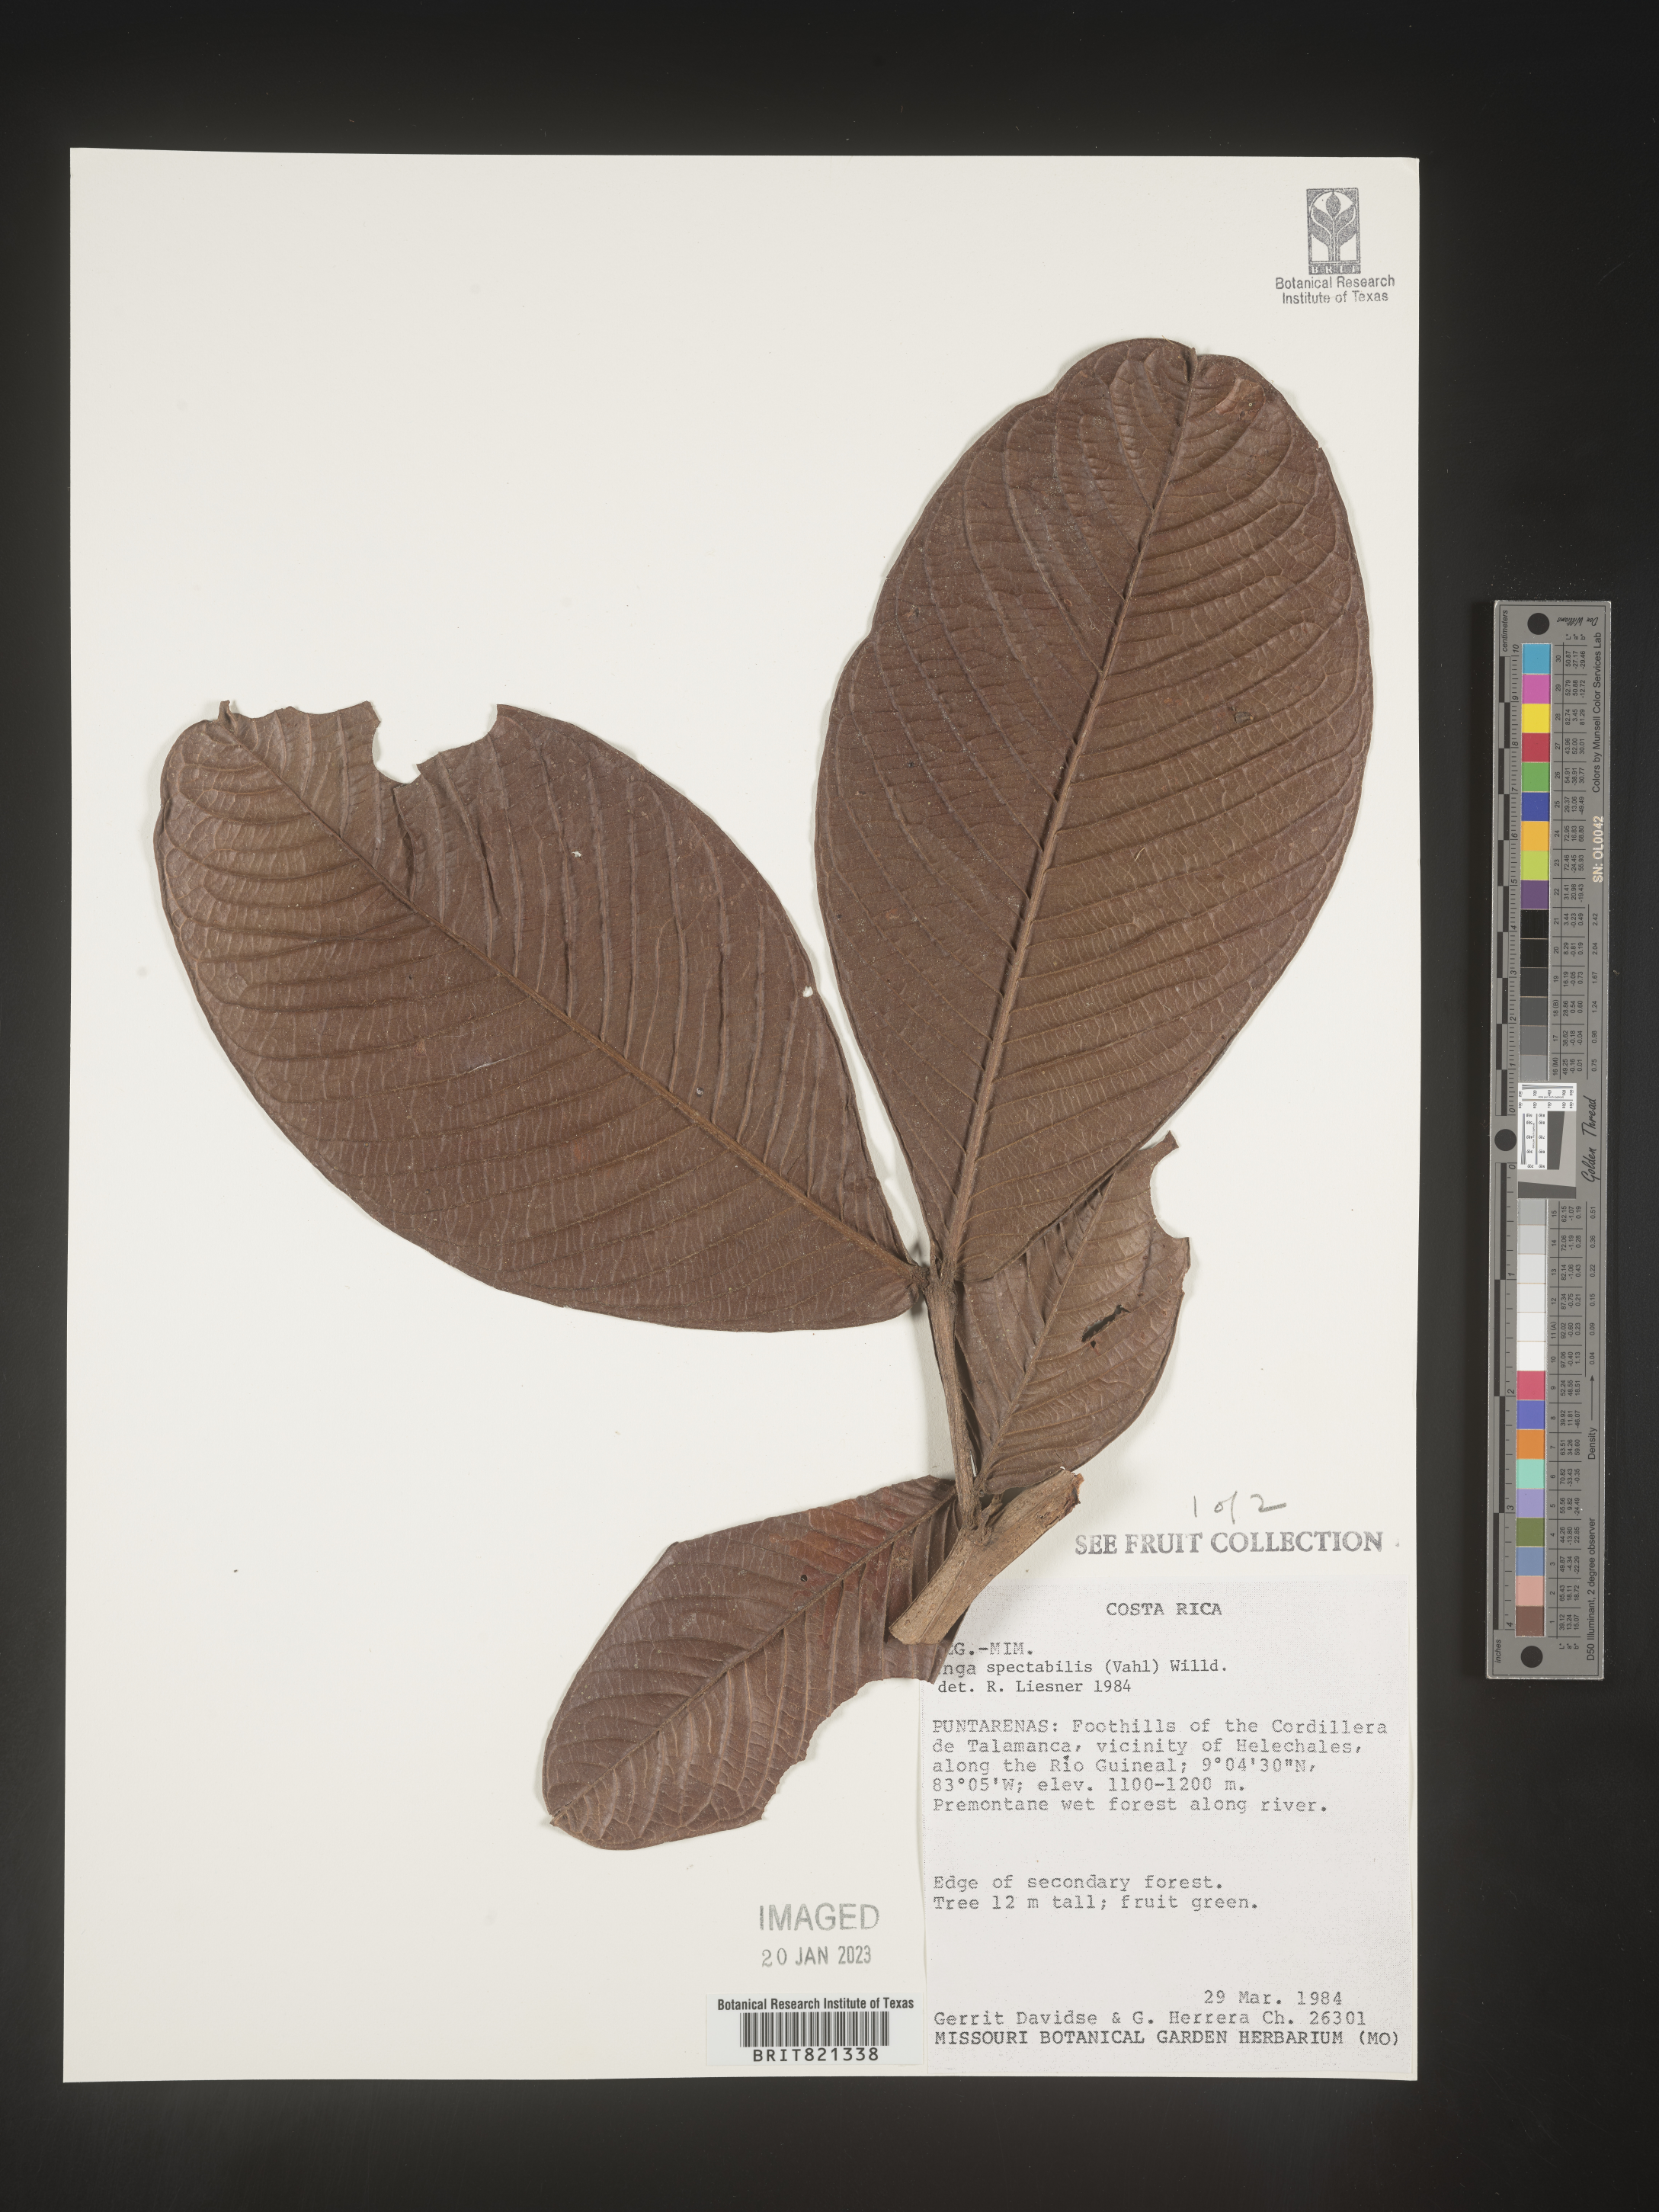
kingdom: Plantae
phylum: Tracheophyta
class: Magnoliopsida
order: Fabales
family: Fabaceae
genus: Inga
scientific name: Inga
